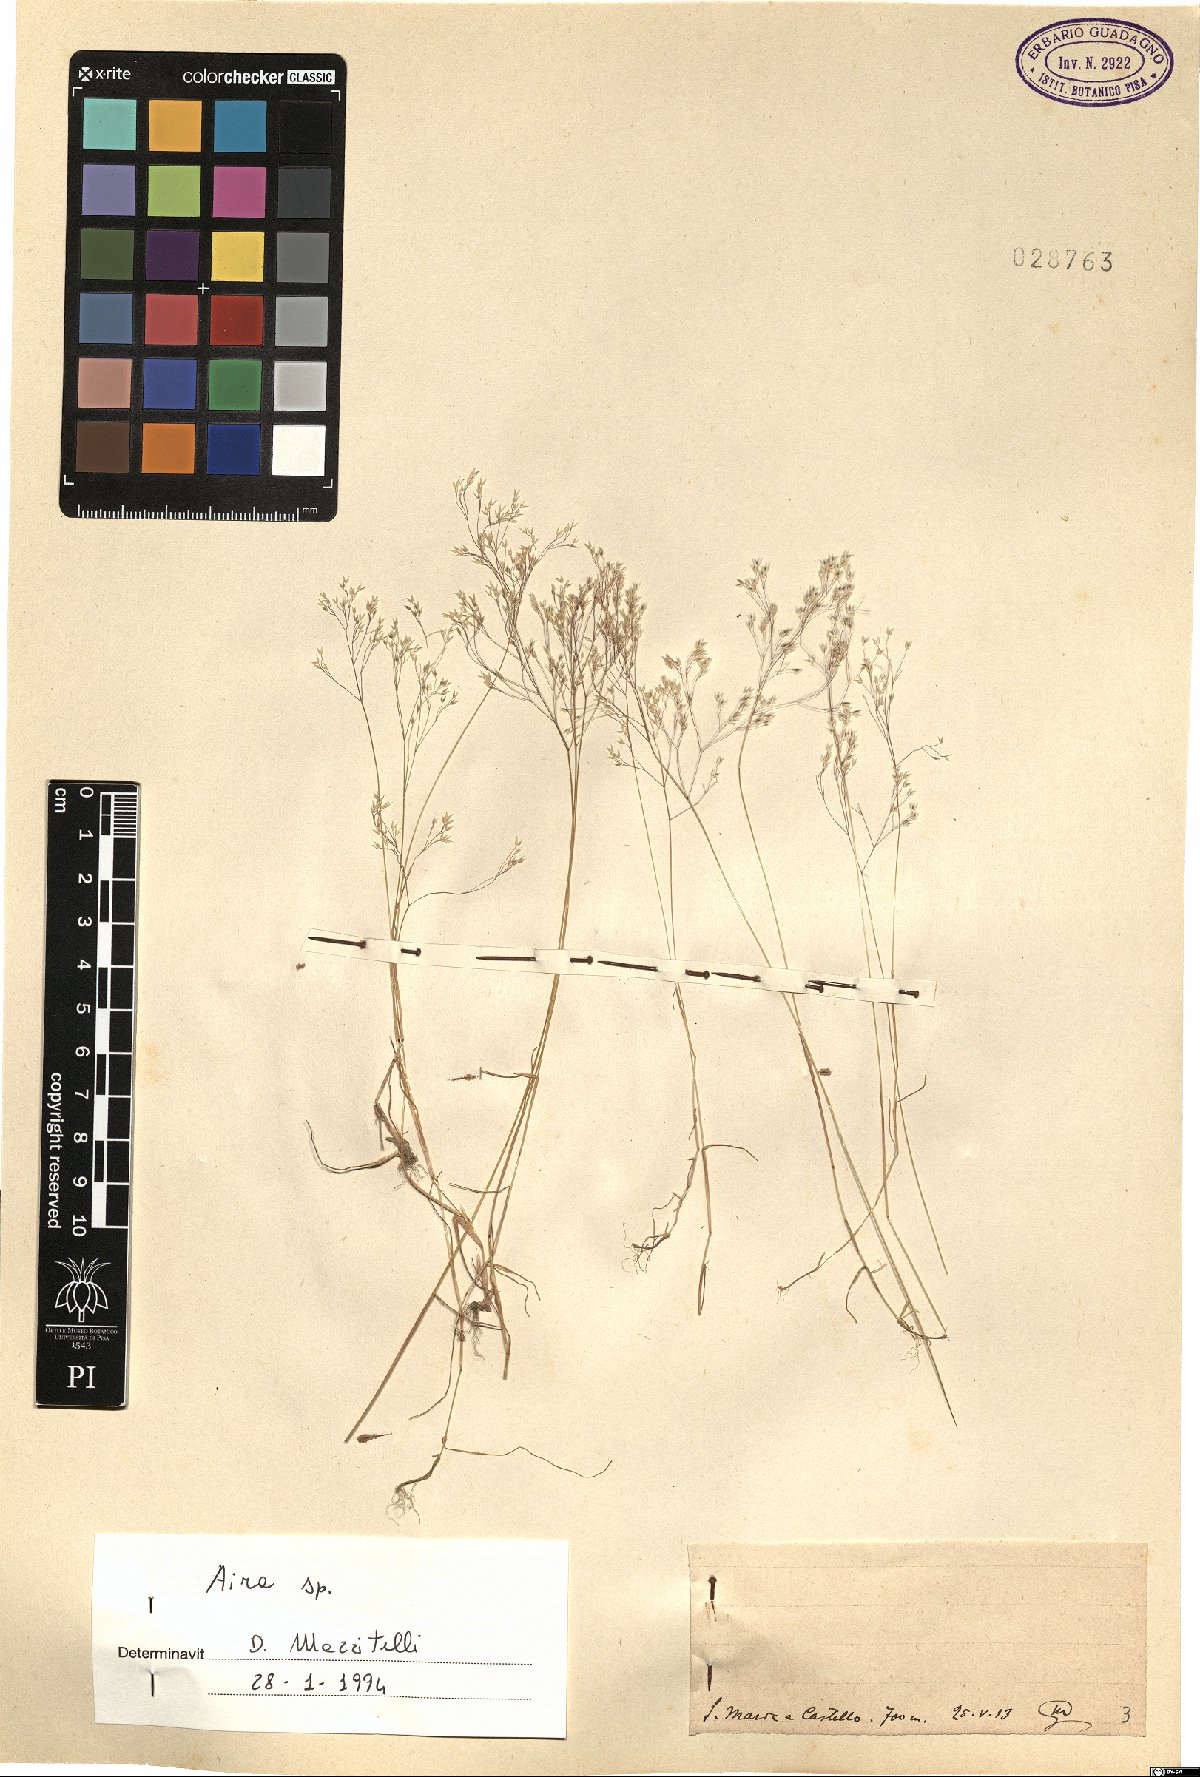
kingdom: Plantae
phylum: Tracheophyta
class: Liliopsida
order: Poales
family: Poaceae
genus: Aira
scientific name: Aira
